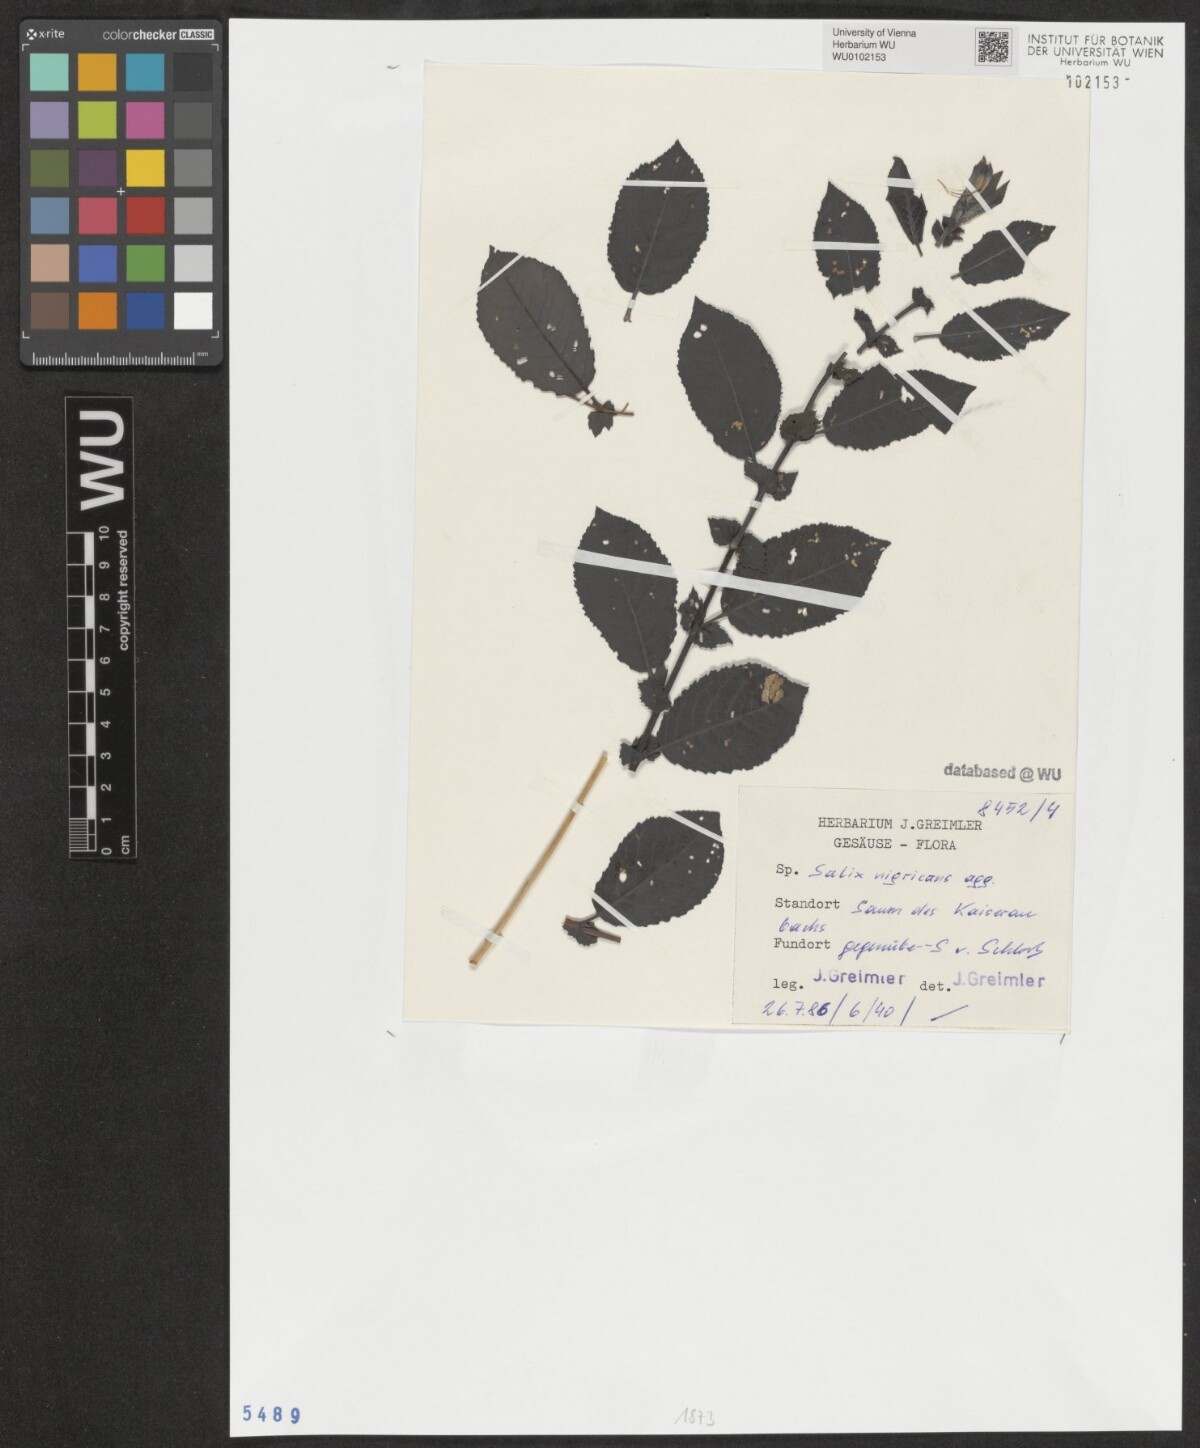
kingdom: Plantae
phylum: Tracheophyta
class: Magnoliopsida
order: Malpighiales
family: Salicaceae
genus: Salix
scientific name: Salix myrsinifolia
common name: Dark-leaved willow
